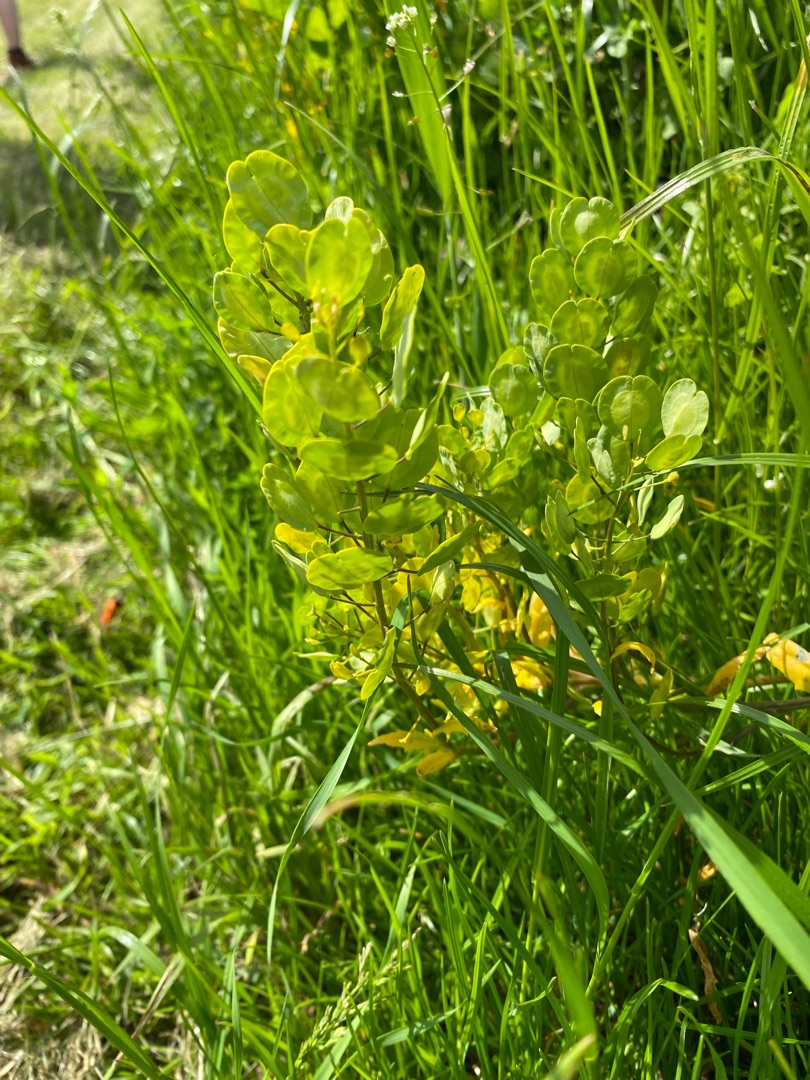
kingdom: Plantae
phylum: Tracheophyta
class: Magnoliopsida
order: Brassicales
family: Brassicaceae
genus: Thlaspi
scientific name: Thlaspi arvense
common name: Almindelig pengeurt
